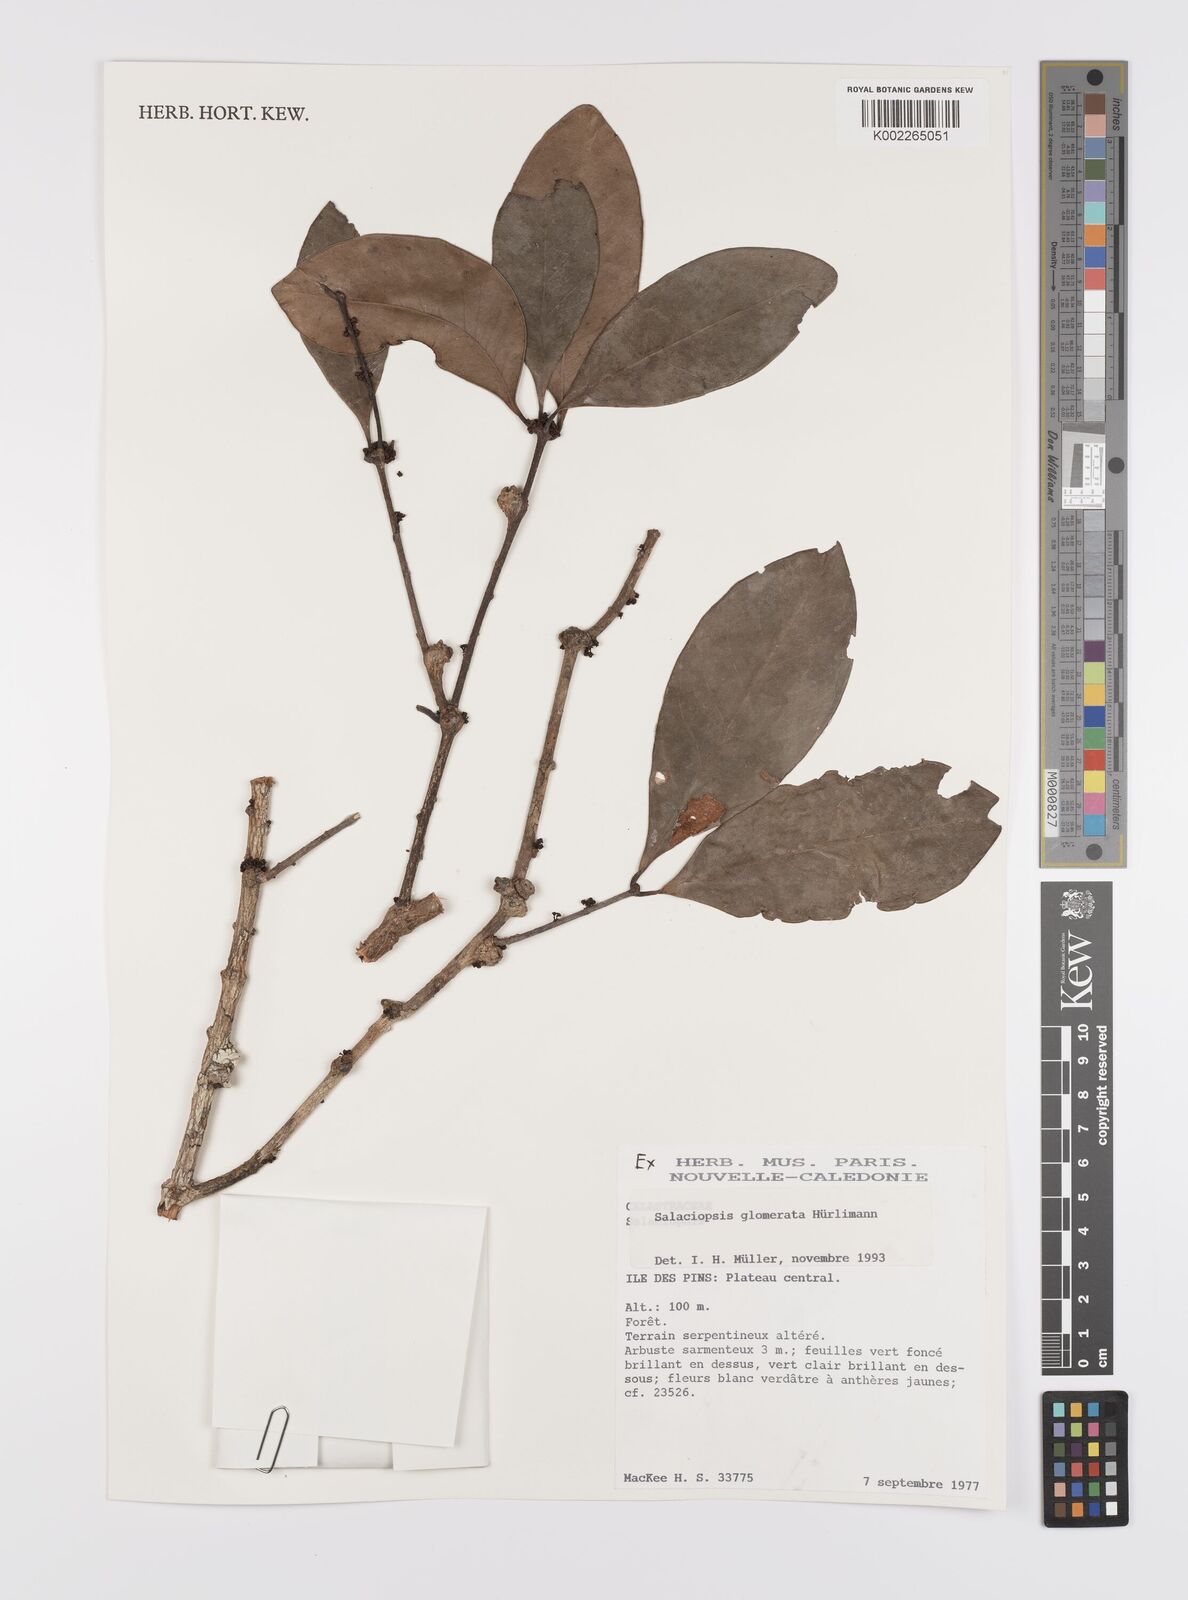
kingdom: Plantae
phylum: Tracheophyta
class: Magnoliopsida
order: Celastrales
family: Celastraceae
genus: Salaciopsis
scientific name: Salaciopsis glomerata
